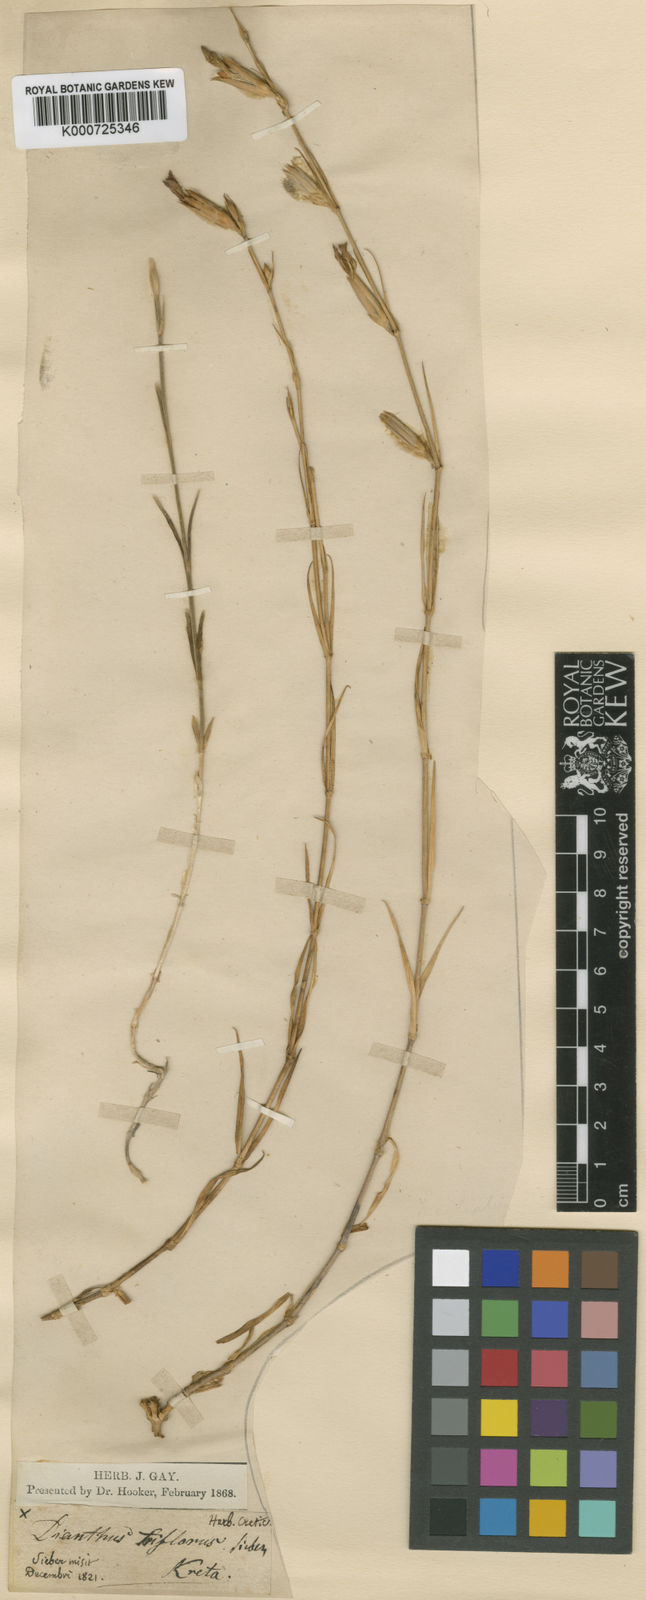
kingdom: Plantae
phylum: Tracheophyta
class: Magnoliopsida
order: Caryophyllales
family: Caryophyllaceae
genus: Dianthus
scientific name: Dianthus strictus
